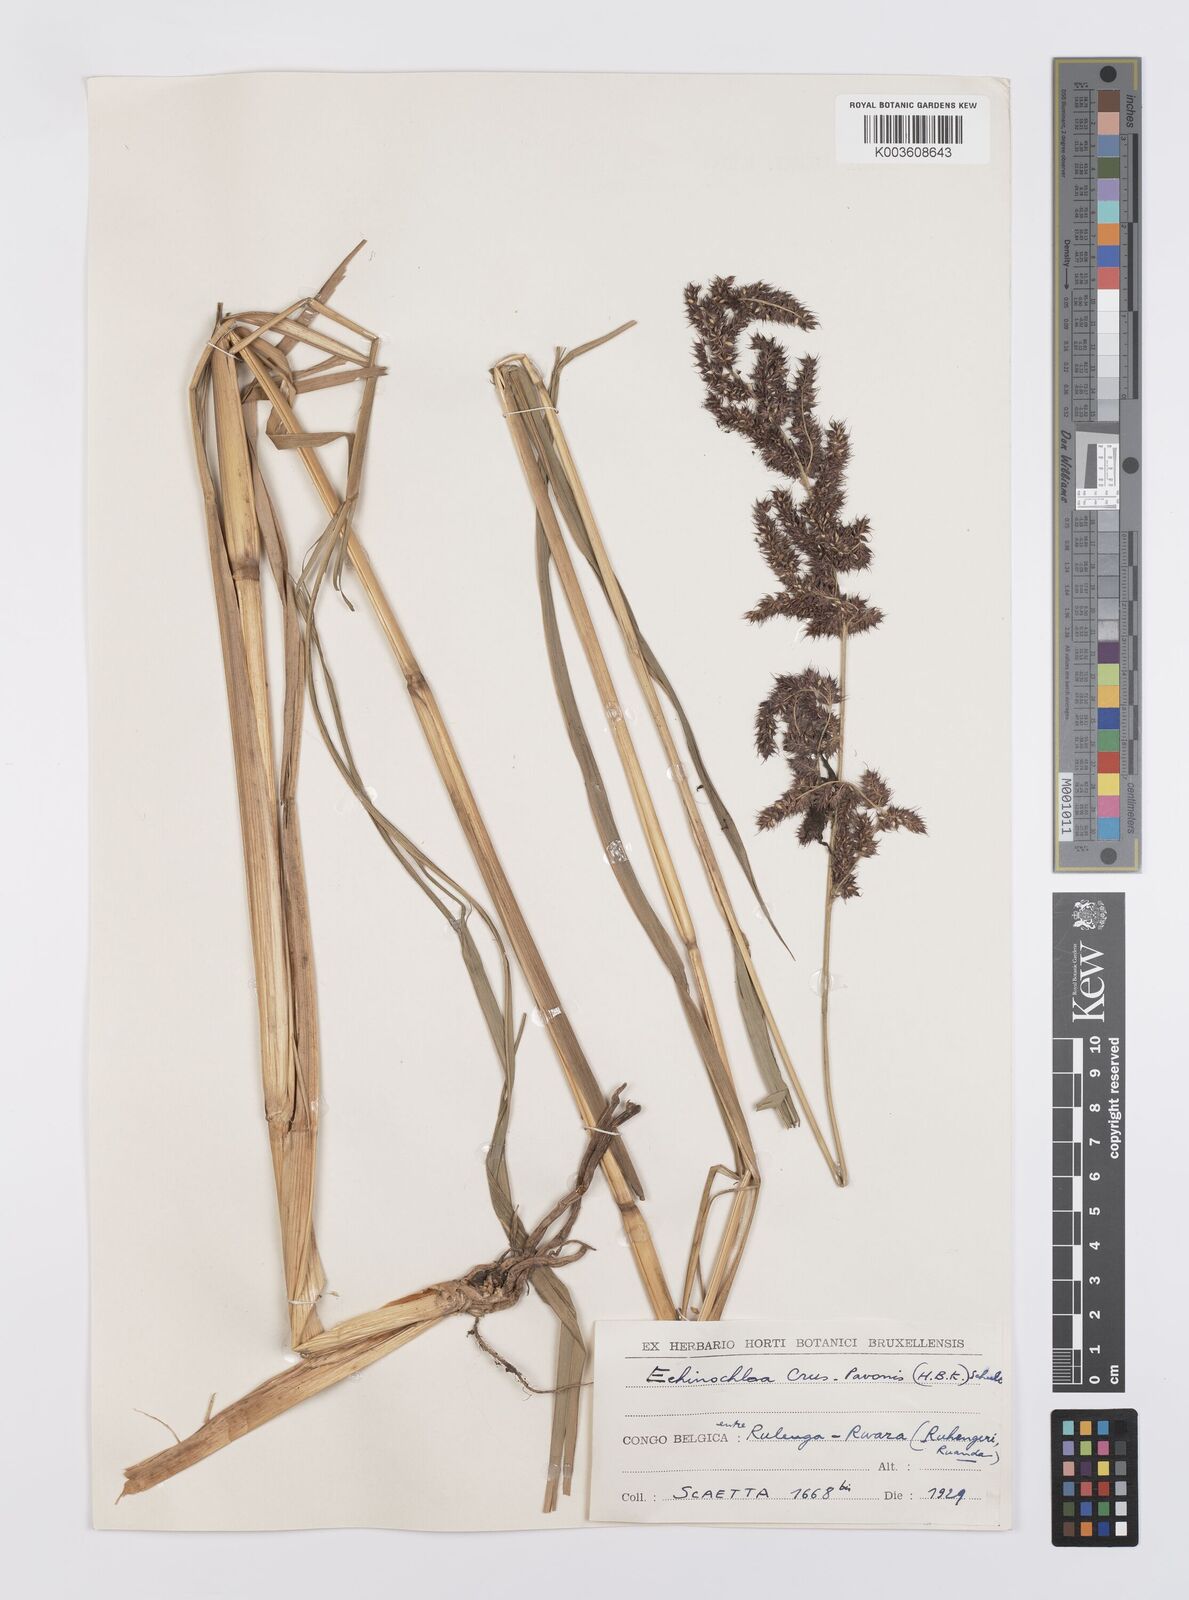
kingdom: Plantae
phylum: Tracheophyta
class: Liliopsida
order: Poales
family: Poaceae
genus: Echinochloa
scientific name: Echinochloa crus-pavonis
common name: Gulf cockspur grass
